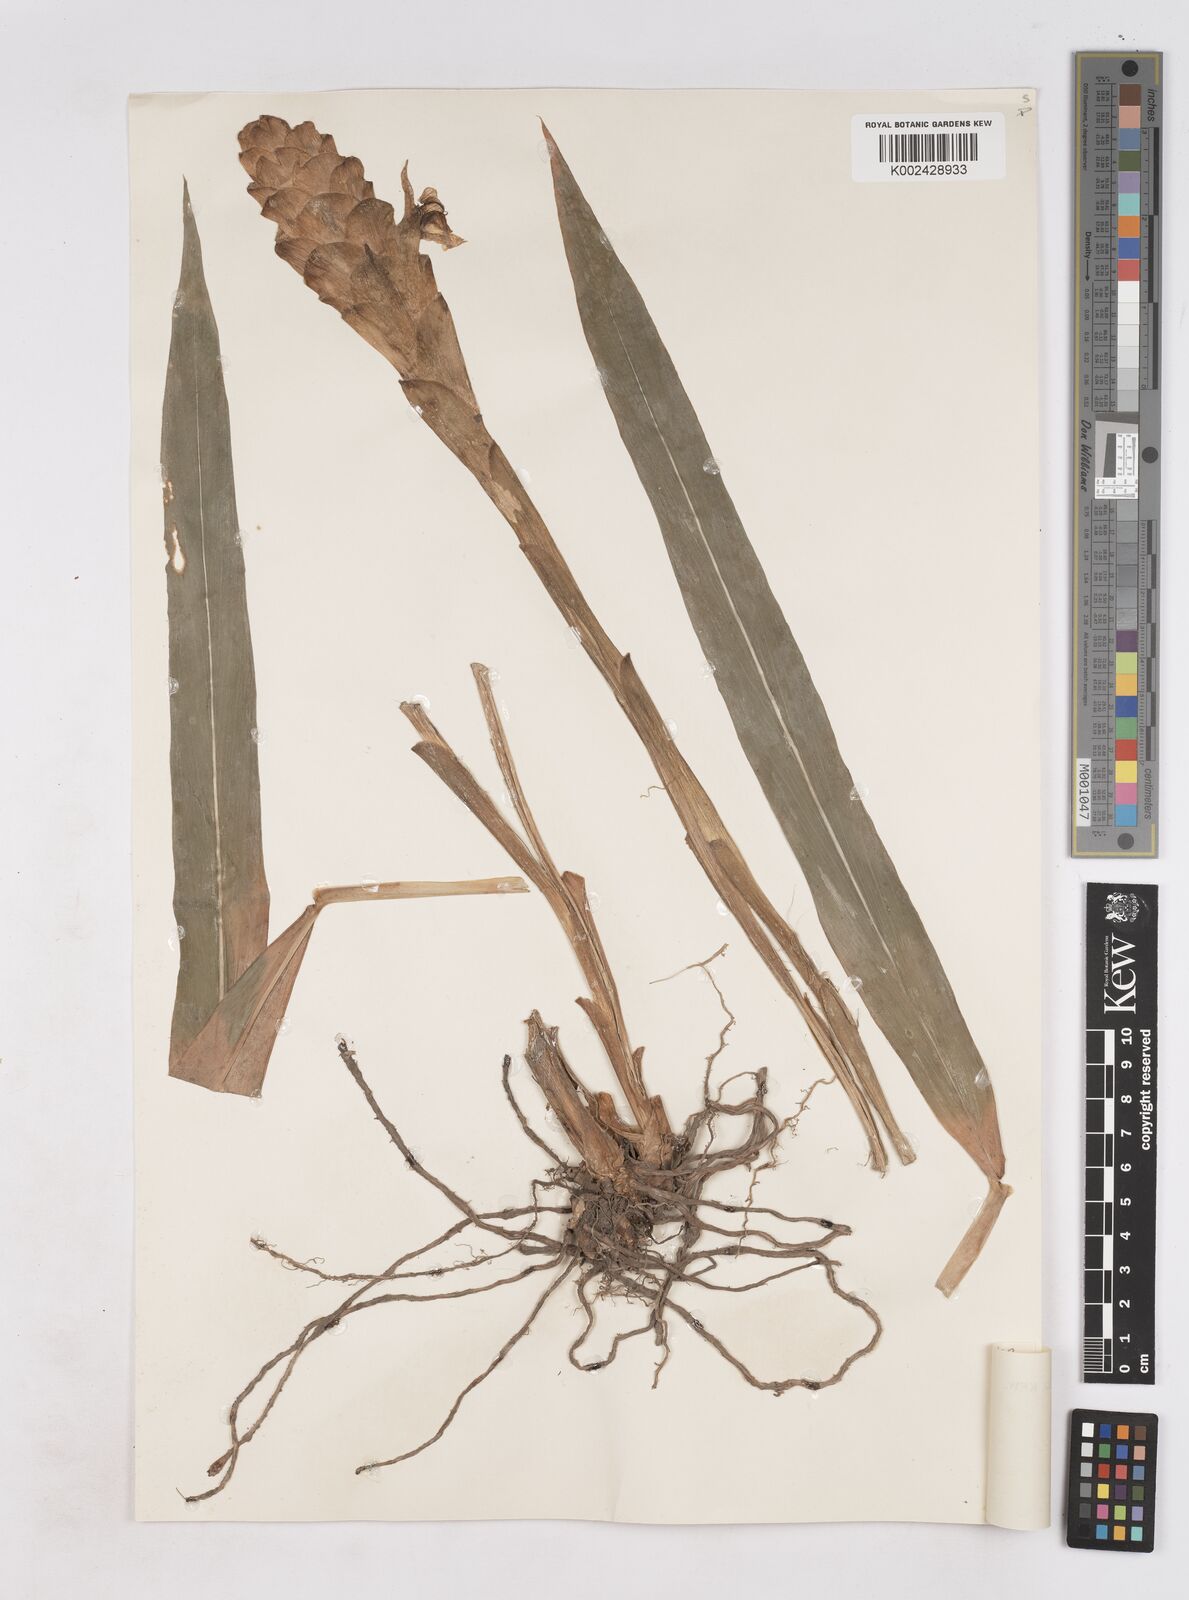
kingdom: Plantae
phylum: Tracheophyta
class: Liliopsida
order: Zingiberales
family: Zingiberaceae
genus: Zingiber
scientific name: Zingiber parishii
